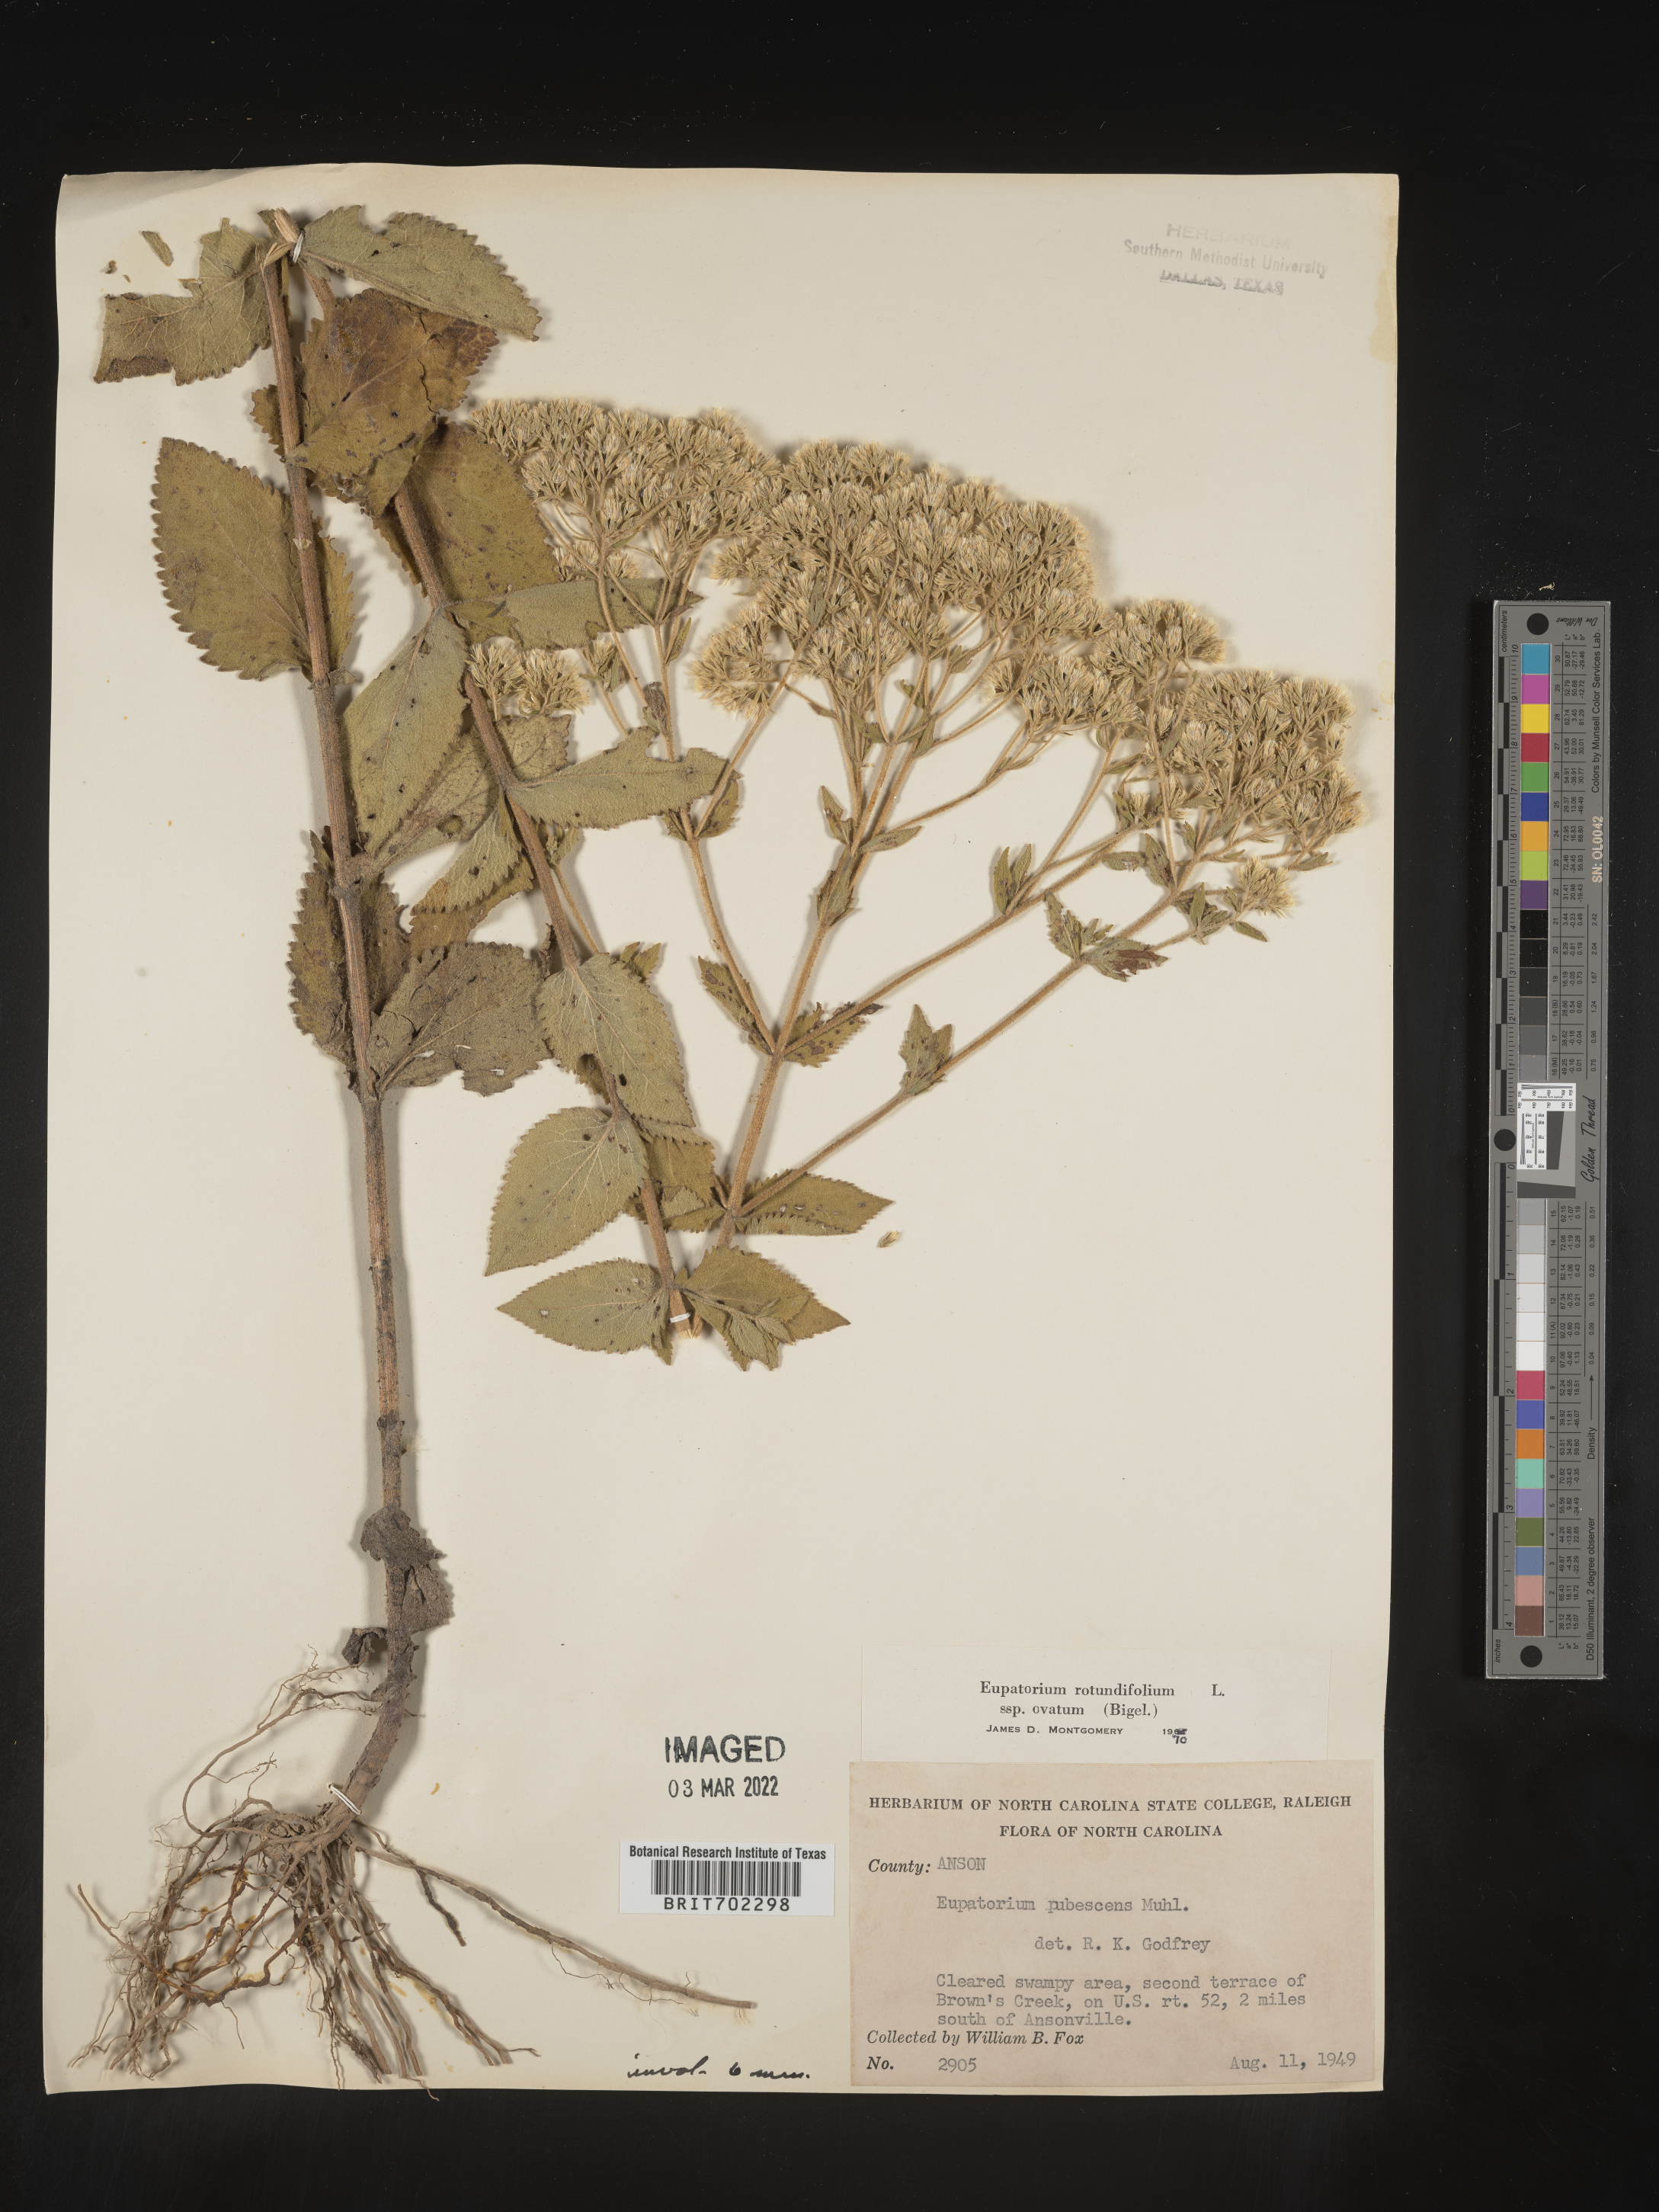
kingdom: Plantae
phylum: Tracheophyta
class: Magnoliopsida
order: Asterales
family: Asteraceae
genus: Eupatorium
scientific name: Eupatorium rotundifolium
